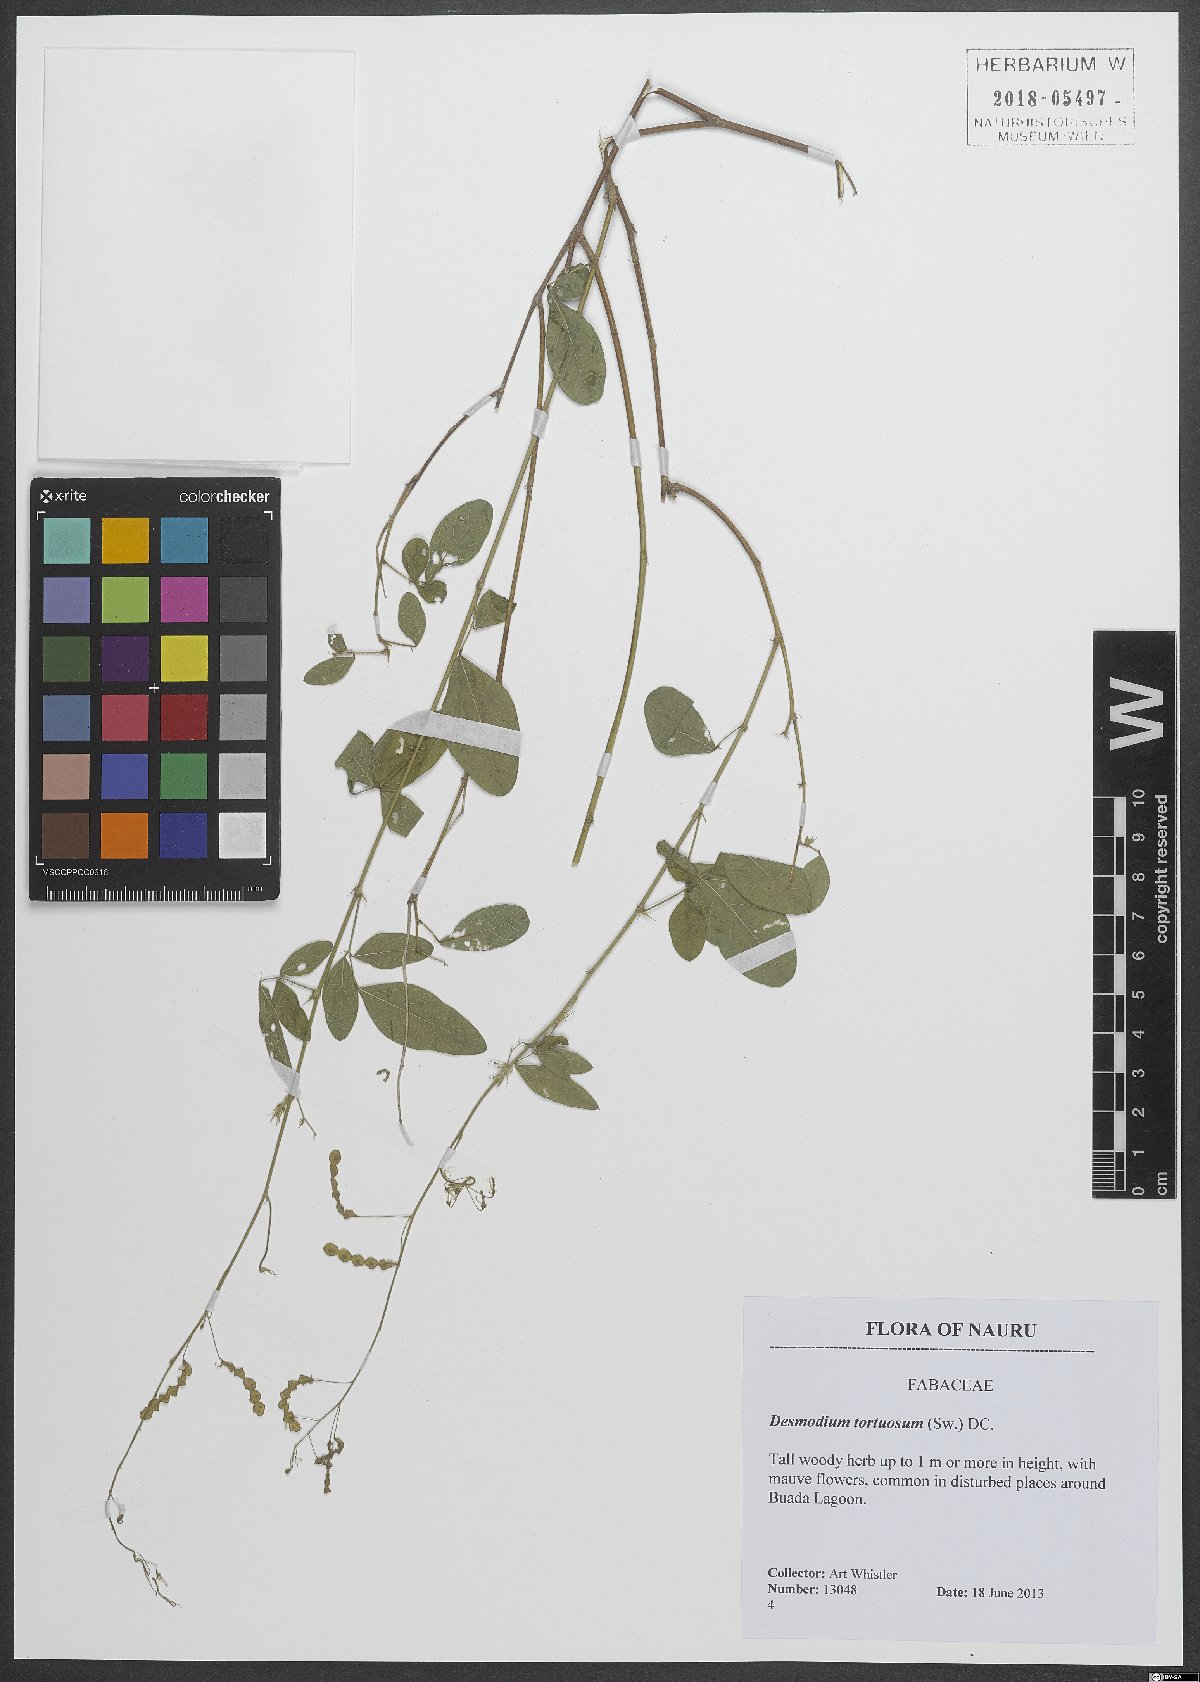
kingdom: Plantae
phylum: Tracheophyta
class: Magnoliopsida
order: Fabales
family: Fabaceae
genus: Desmodium
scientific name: Desmodium tortuosum
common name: Dixie ticktrefoil
